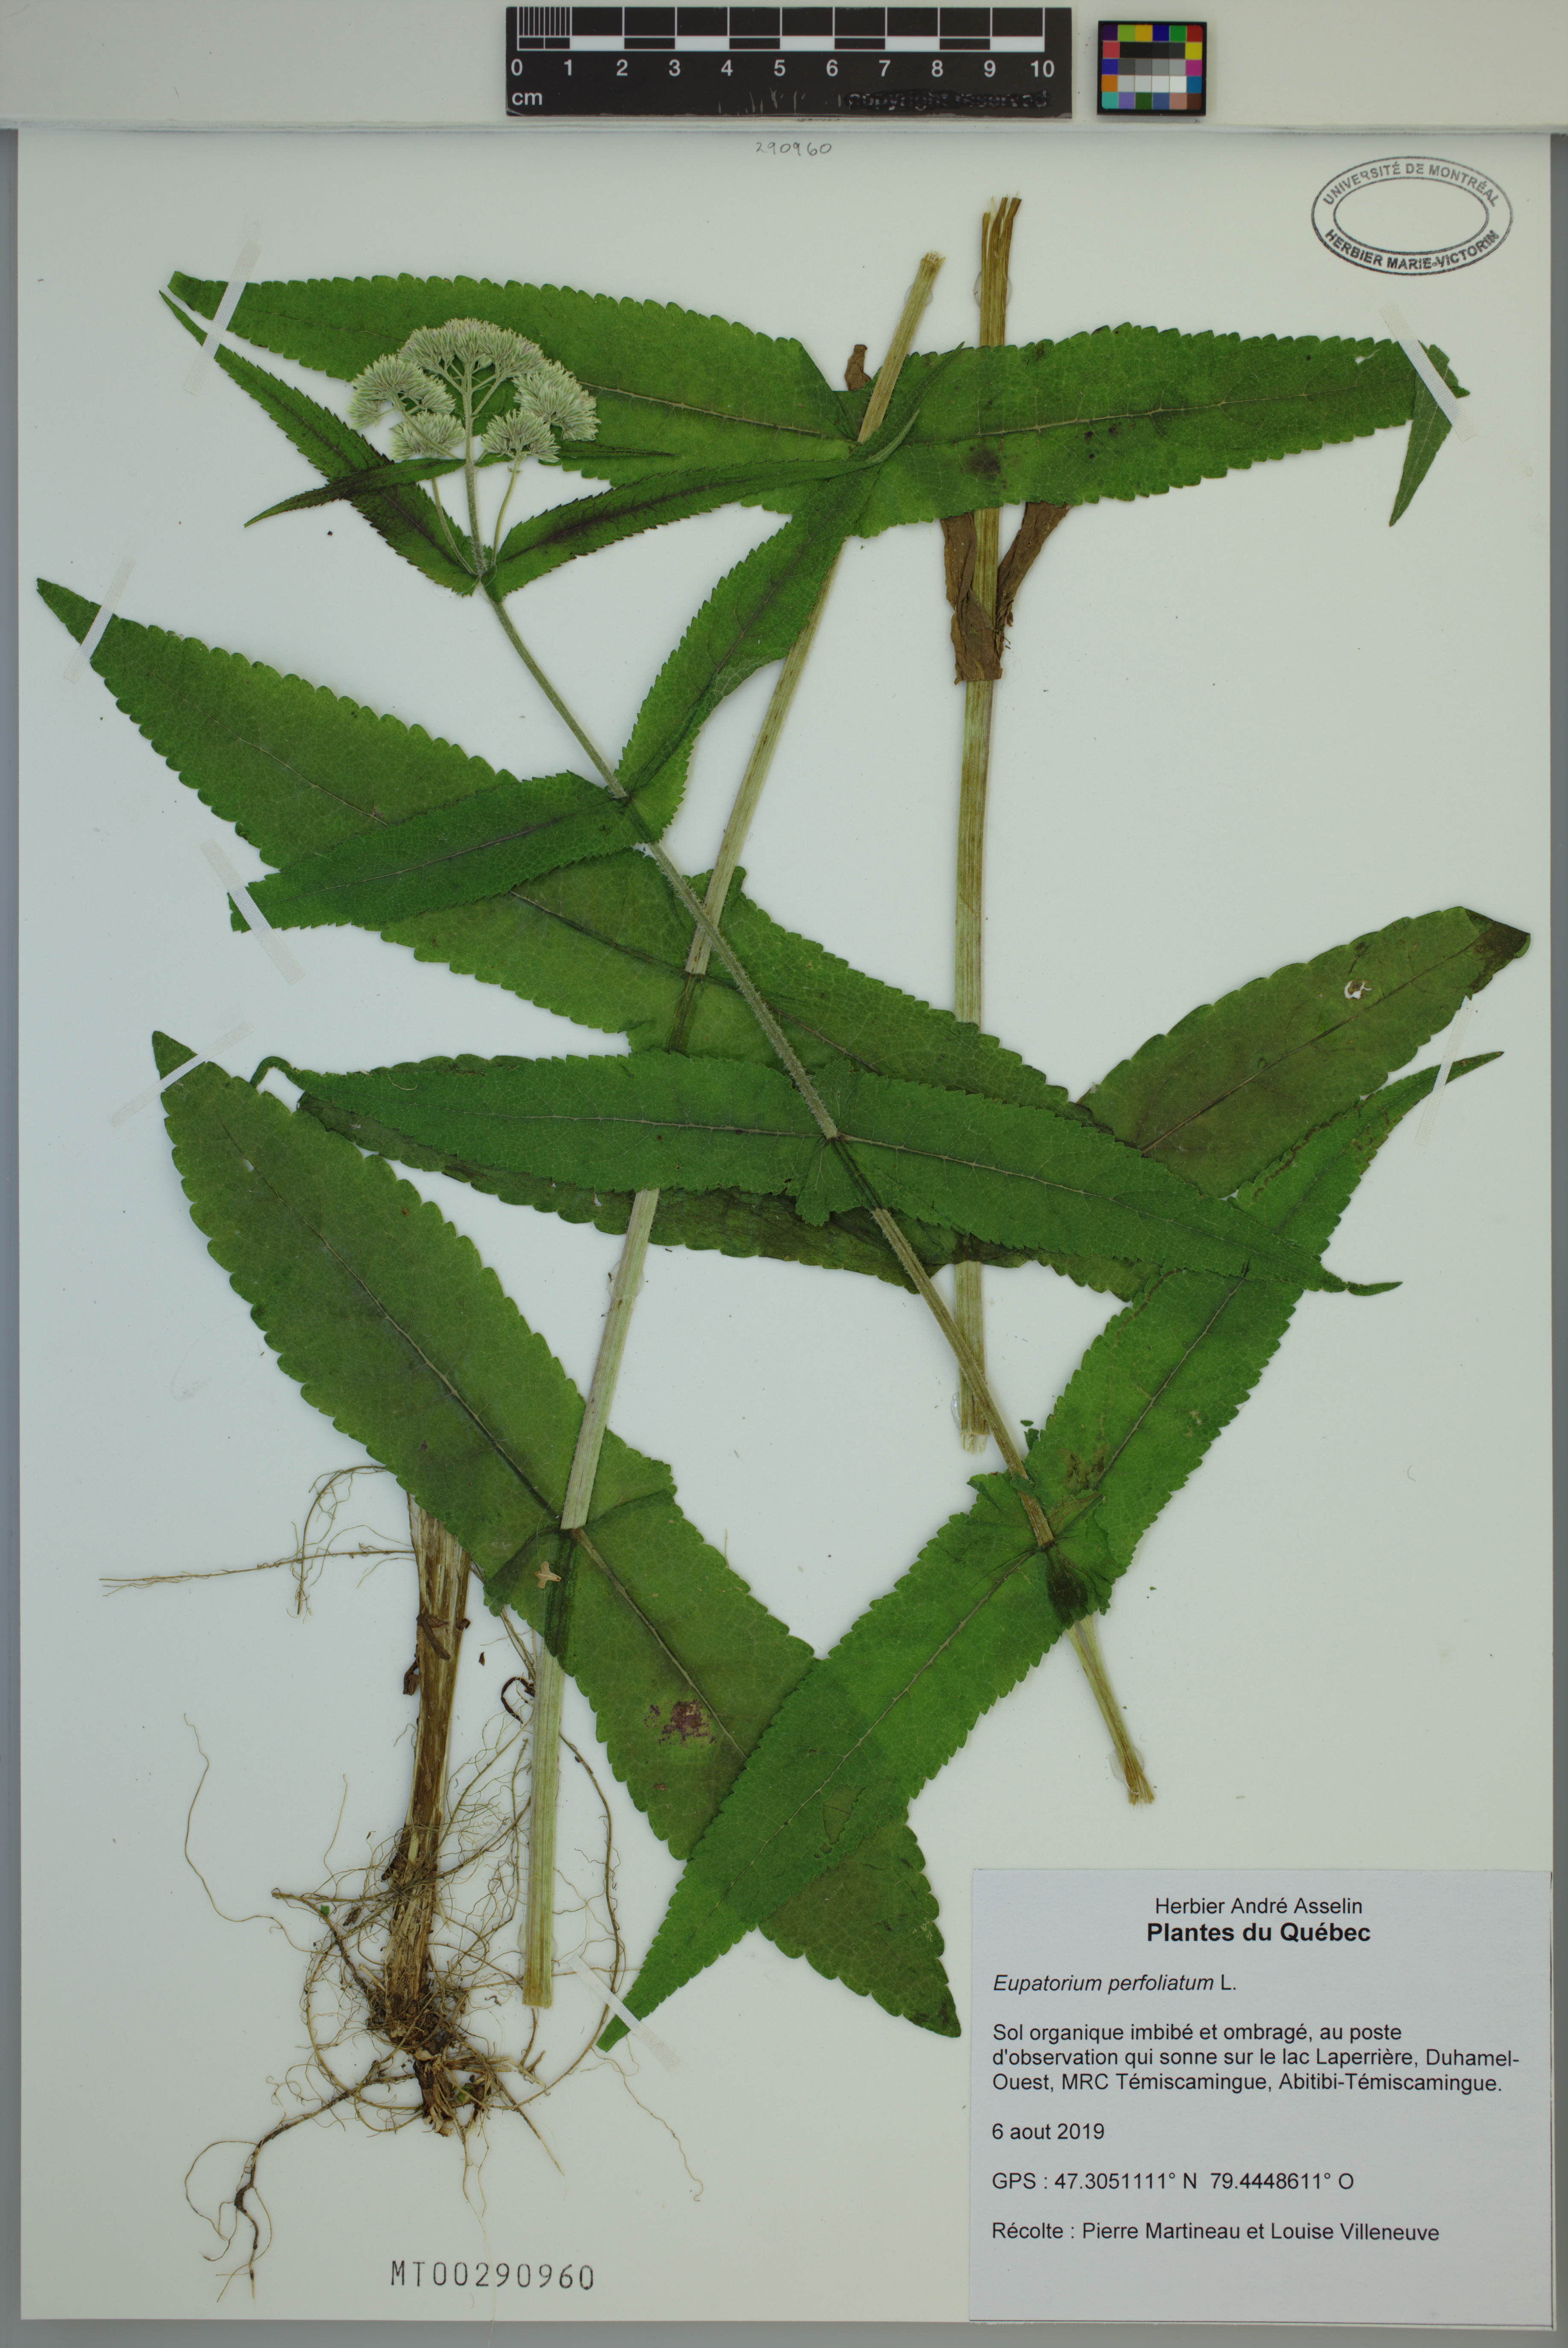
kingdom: Plantae
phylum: Tracheophyta
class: Magnoliopsida
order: Asterales
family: Asteraceae
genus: Eupatorium
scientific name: Eupatorium perfoliatum
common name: Boneset
